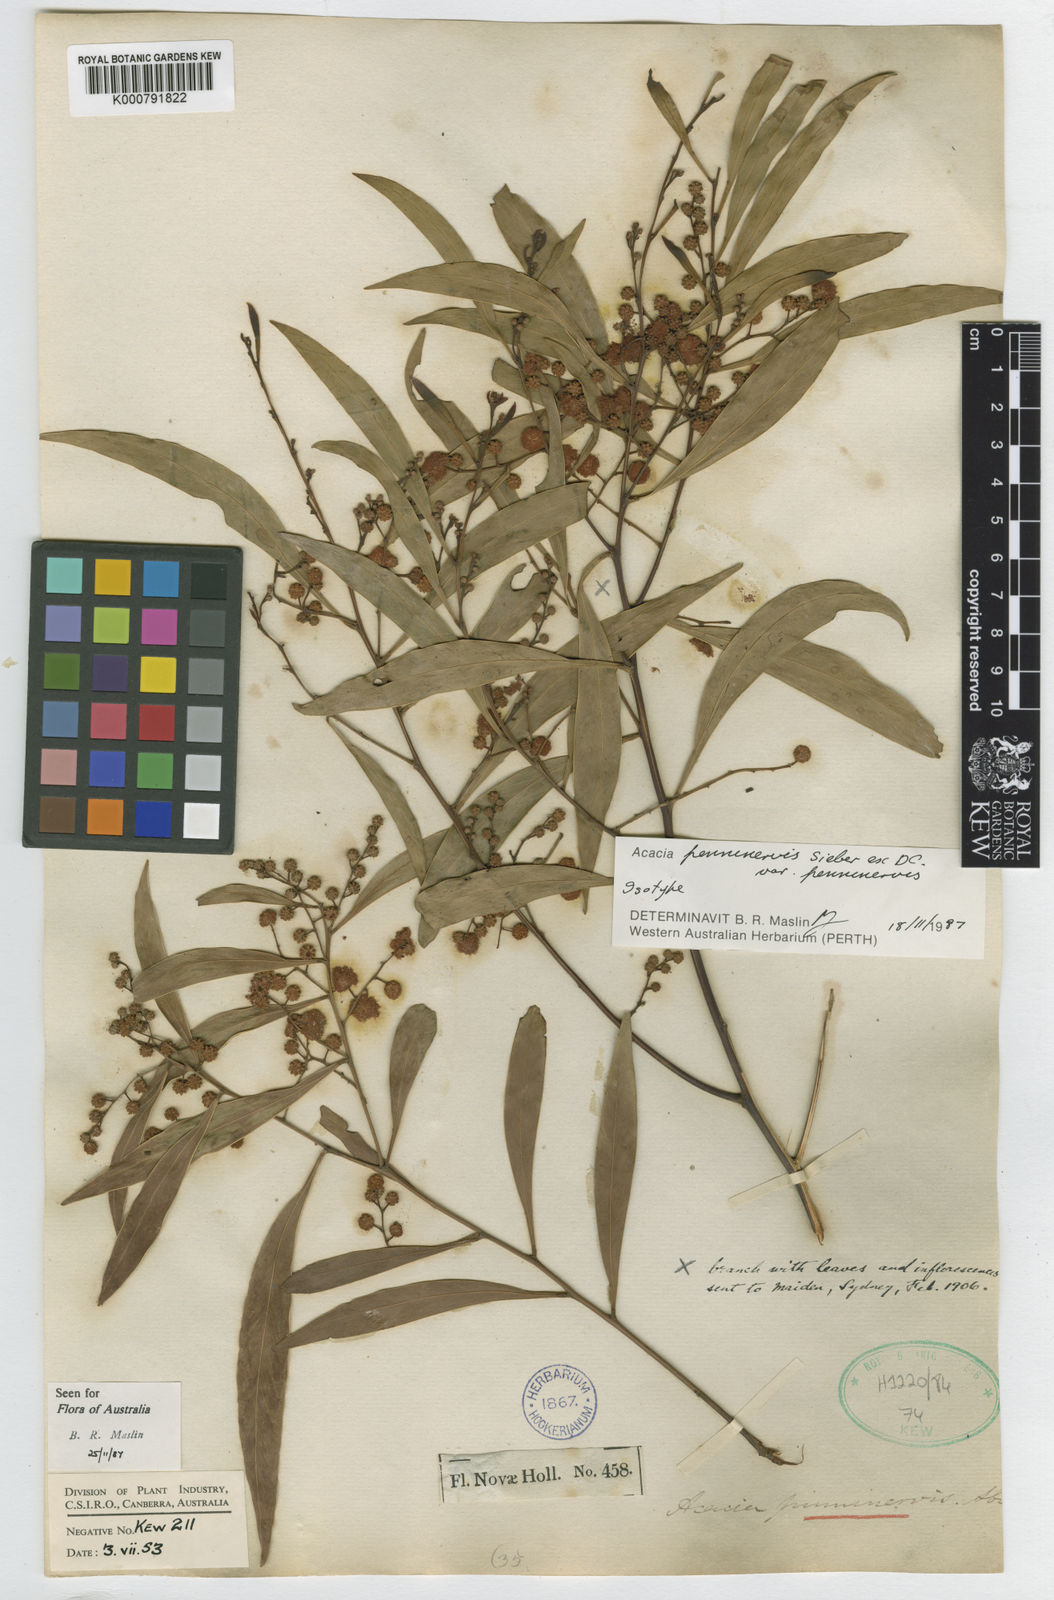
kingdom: Plantae
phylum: Tracheophyta
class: Magnoliopsida
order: Fabales
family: Fabaceae
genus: Acacia
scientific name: Acacia penninervis
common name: Hickory wattle
